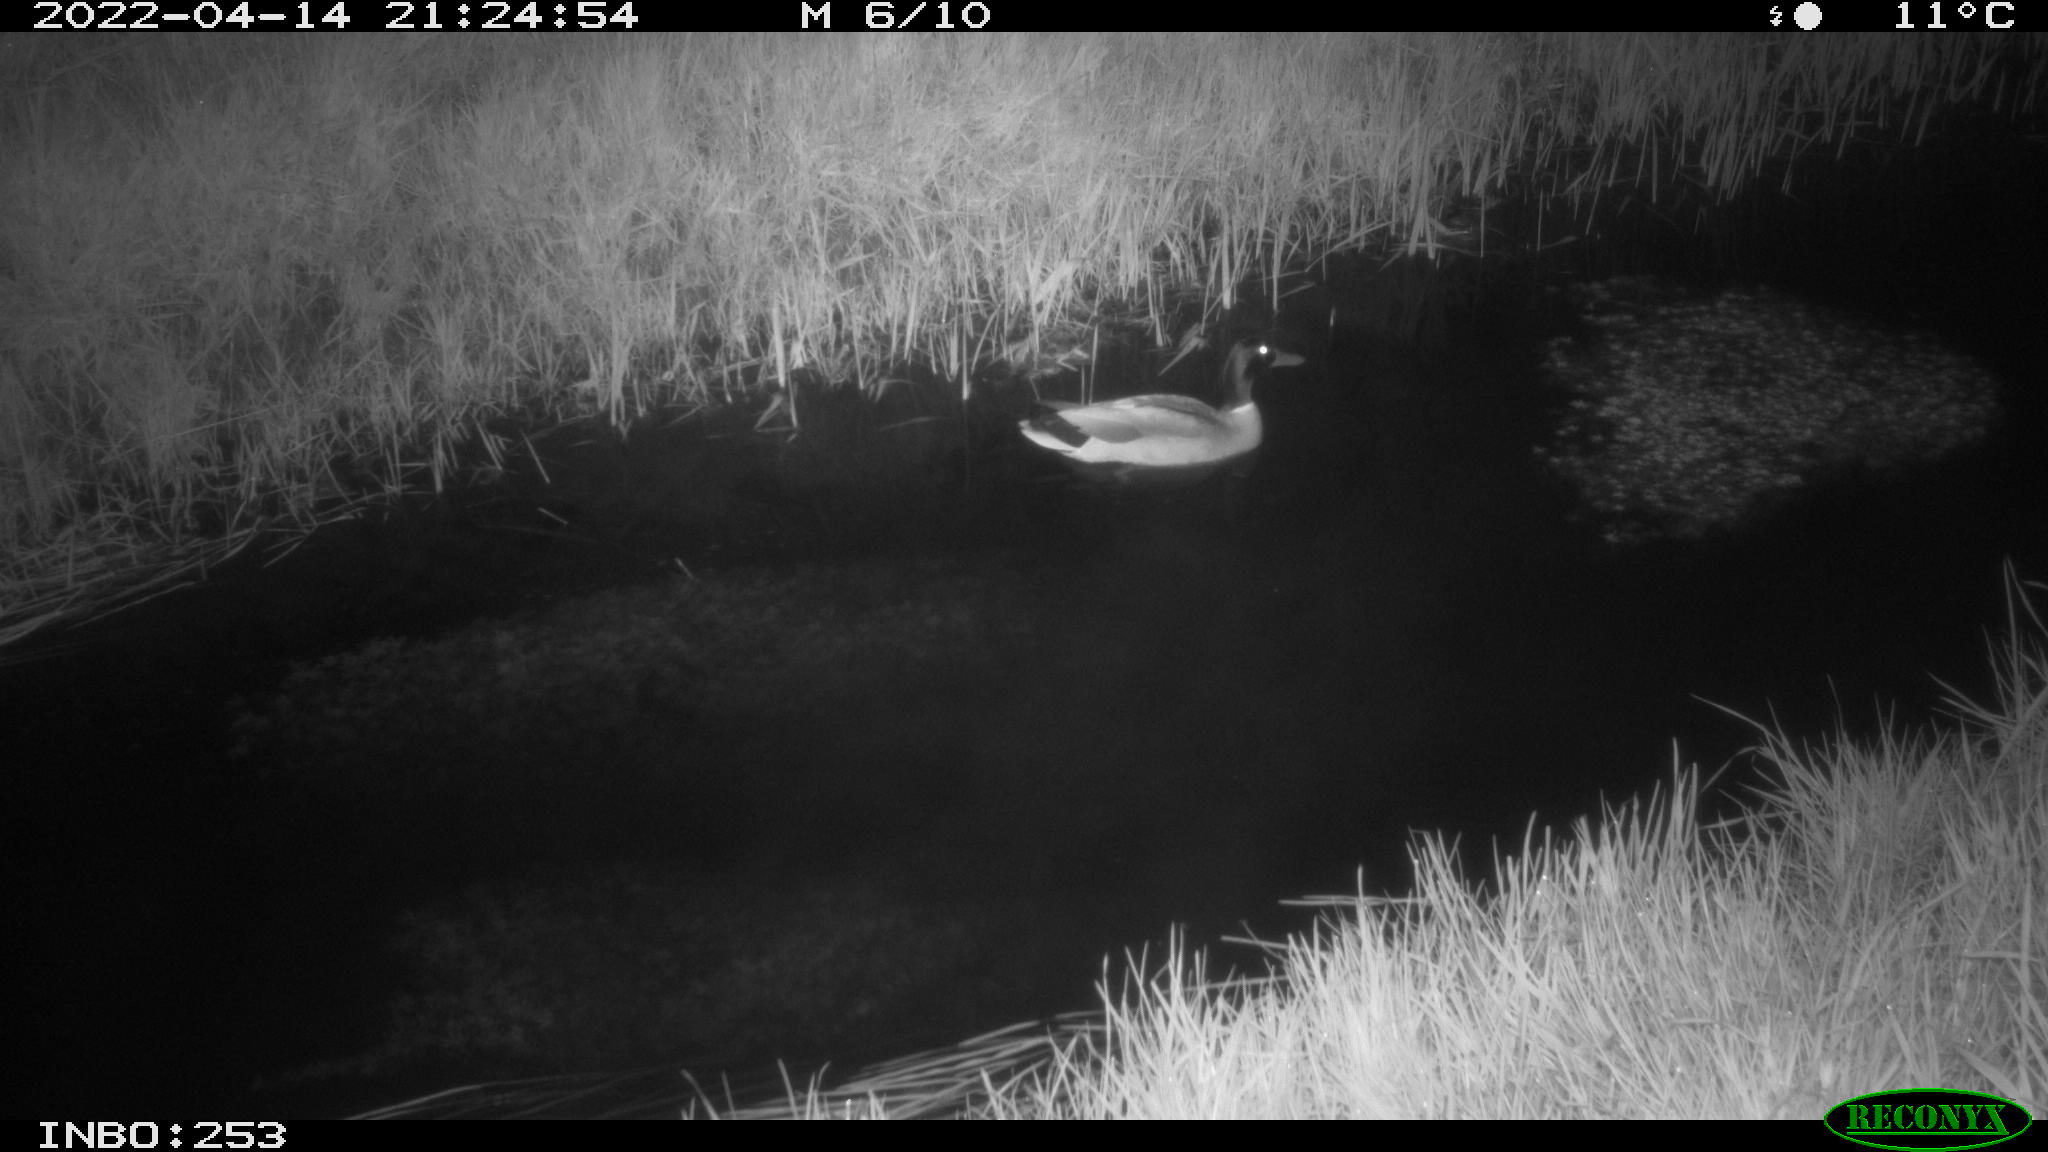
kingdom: Animalia
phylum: Chordata
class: Aves
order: Anseriformes
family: Anatidae
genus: Anas
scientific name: Anas platyrhynchos
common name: Mallard
